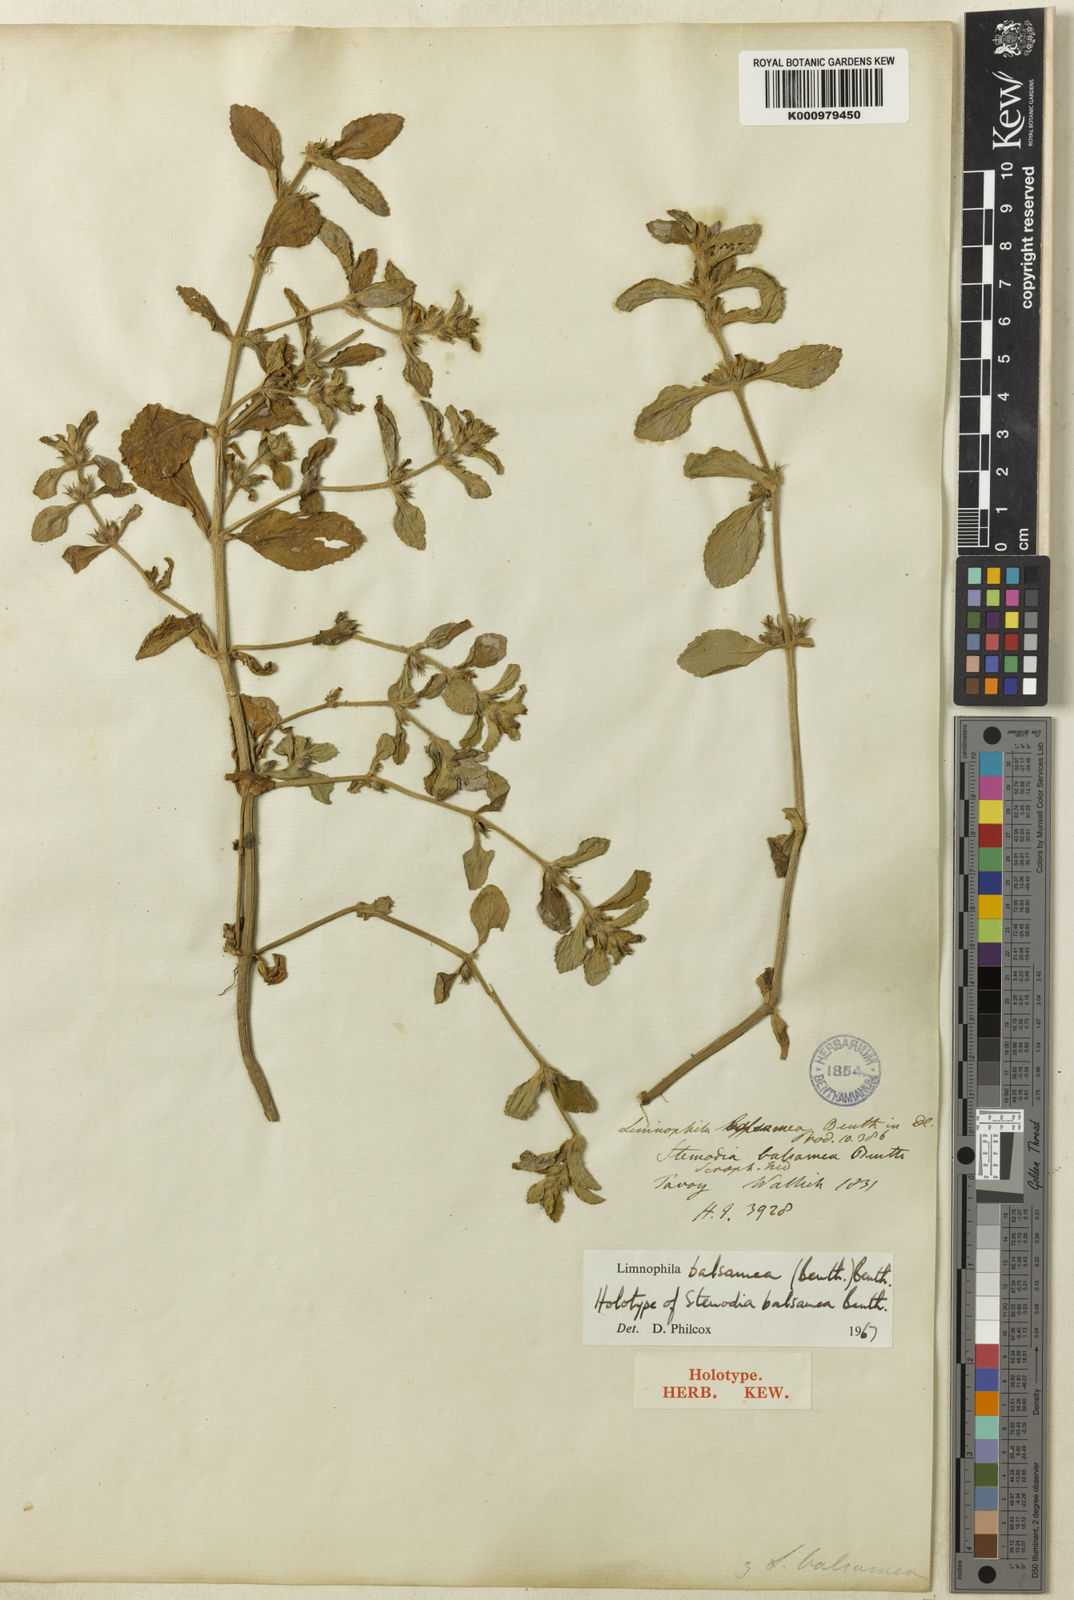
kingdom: Plantae
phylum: Tracheophyta
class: Magnoliopsida
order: Lamiales
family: Plantaginaceae
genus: Limnophila
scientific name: Limnophila balsamea
